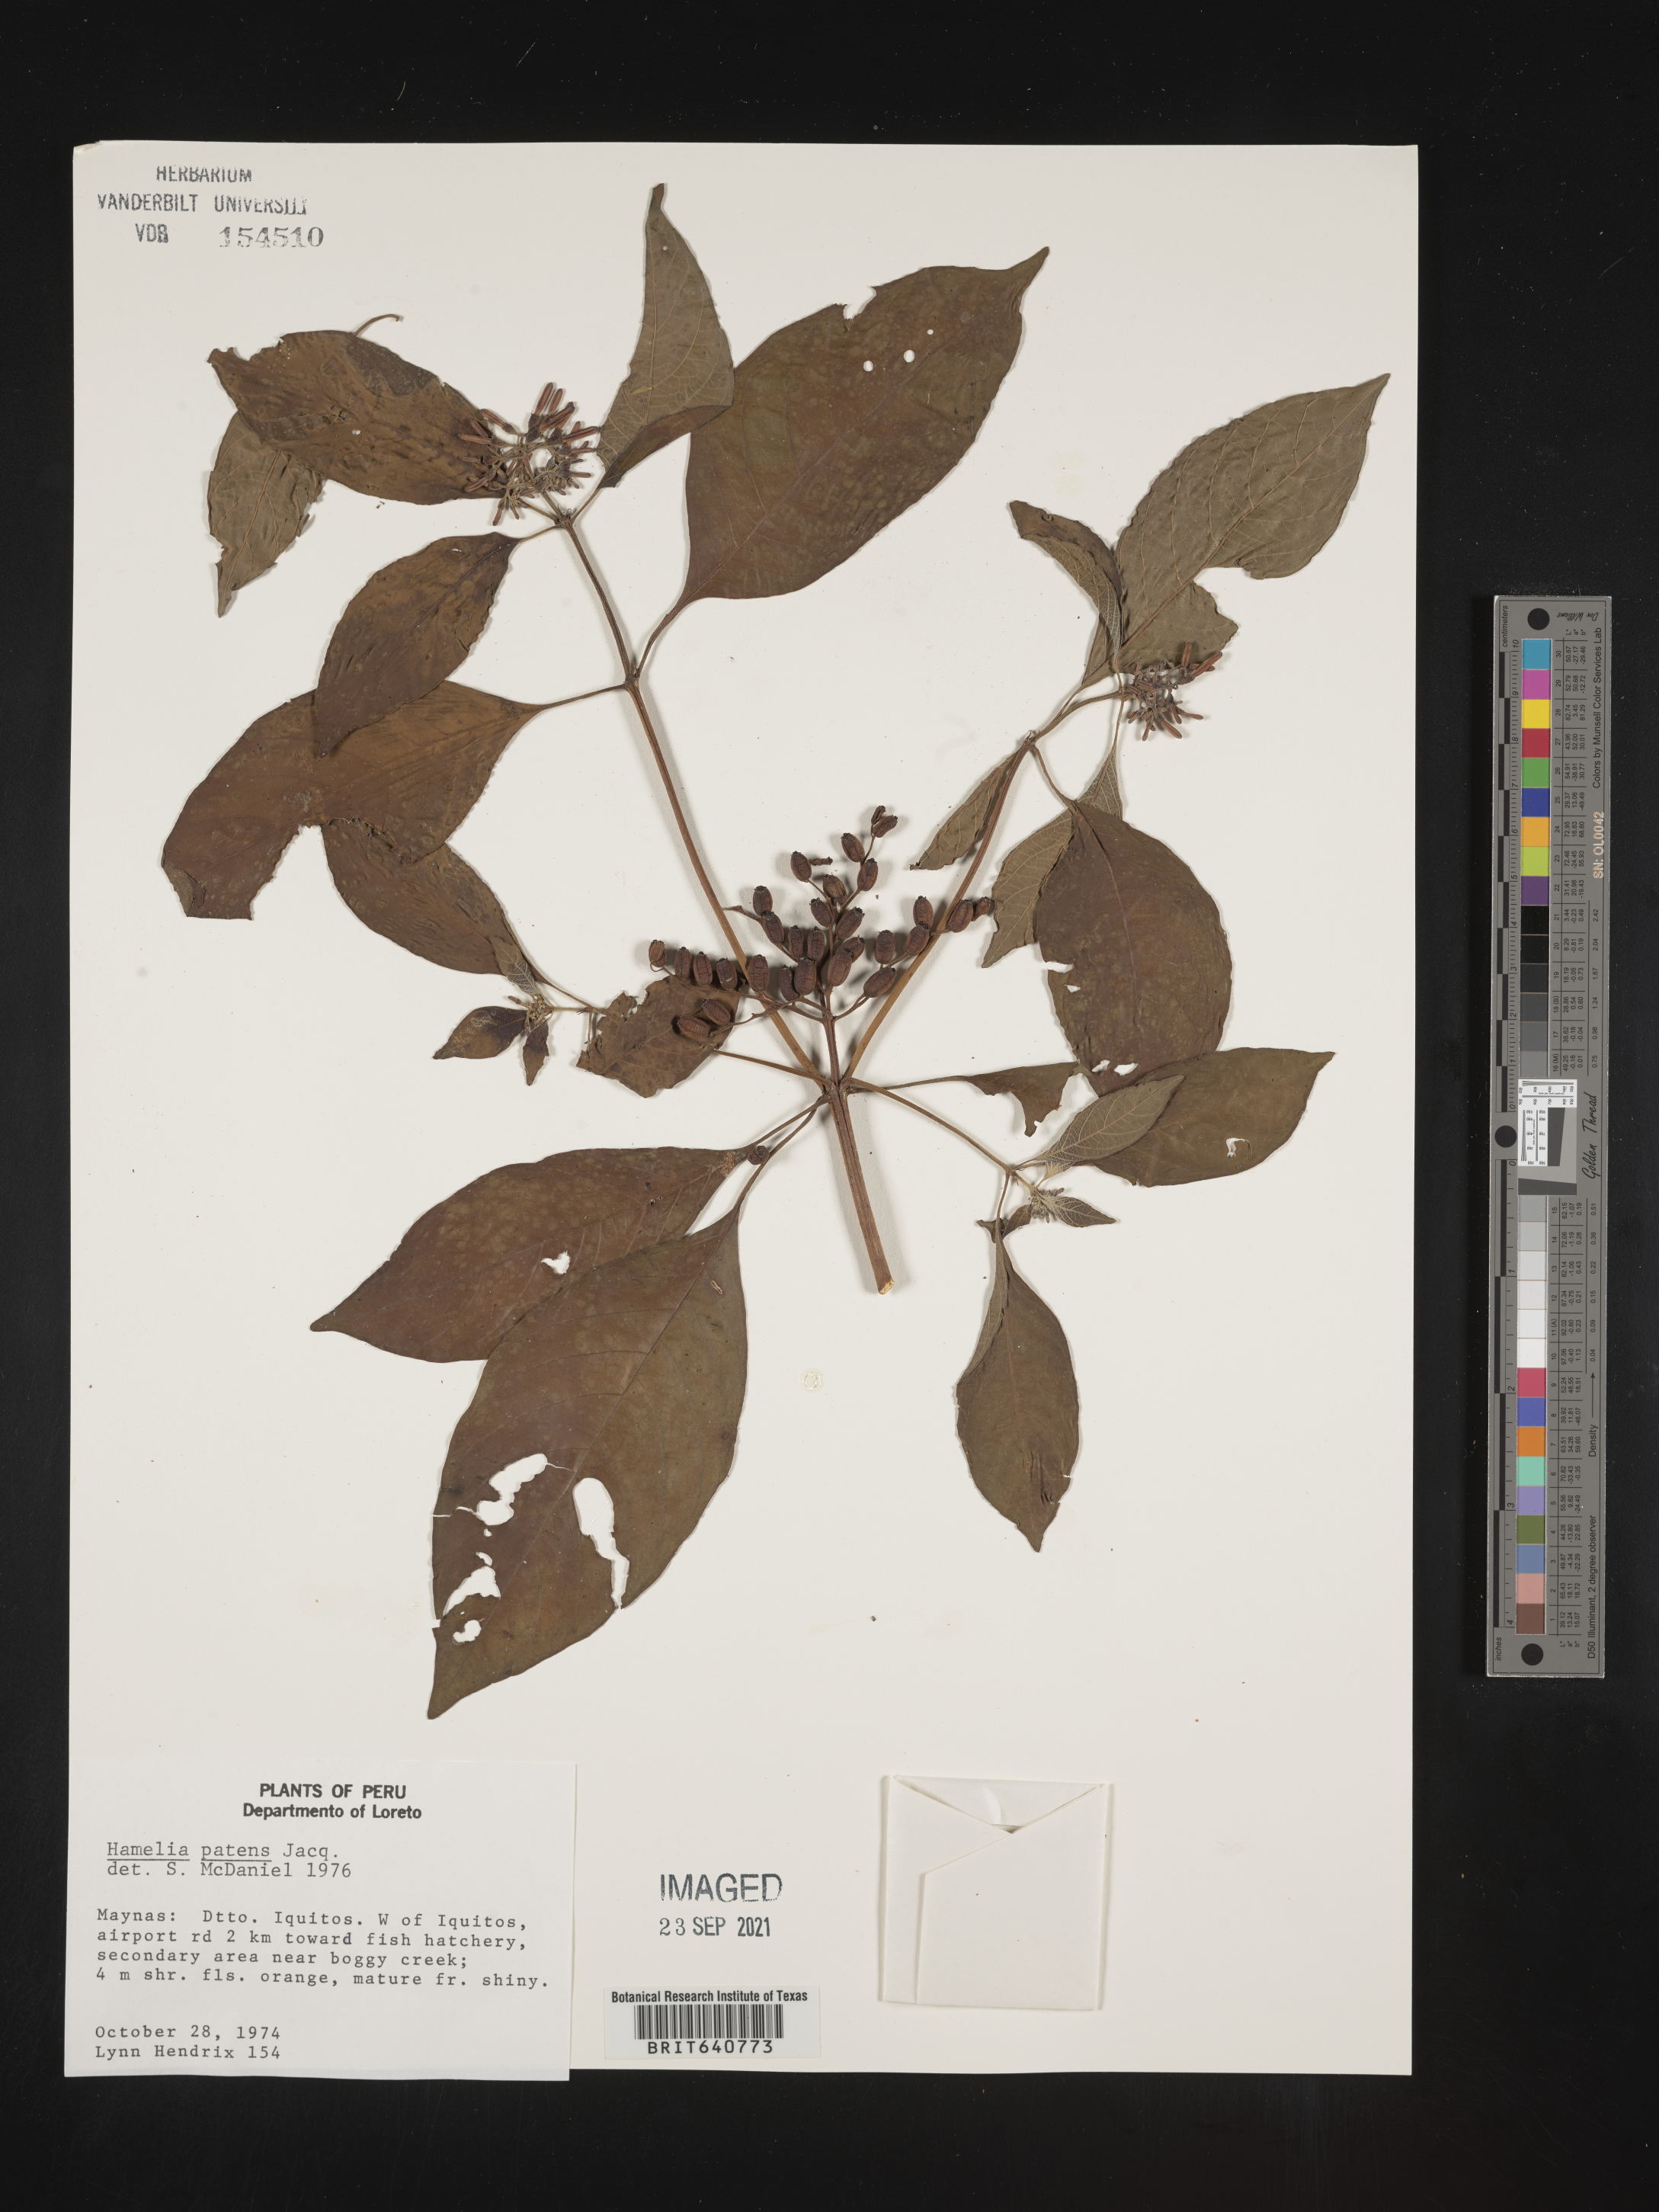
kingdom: Plantae
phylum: Tracheophyta
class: Magnoliopsida
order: Gentianales
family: Rubiaceae
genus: Hamelia
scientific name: Hamelia
